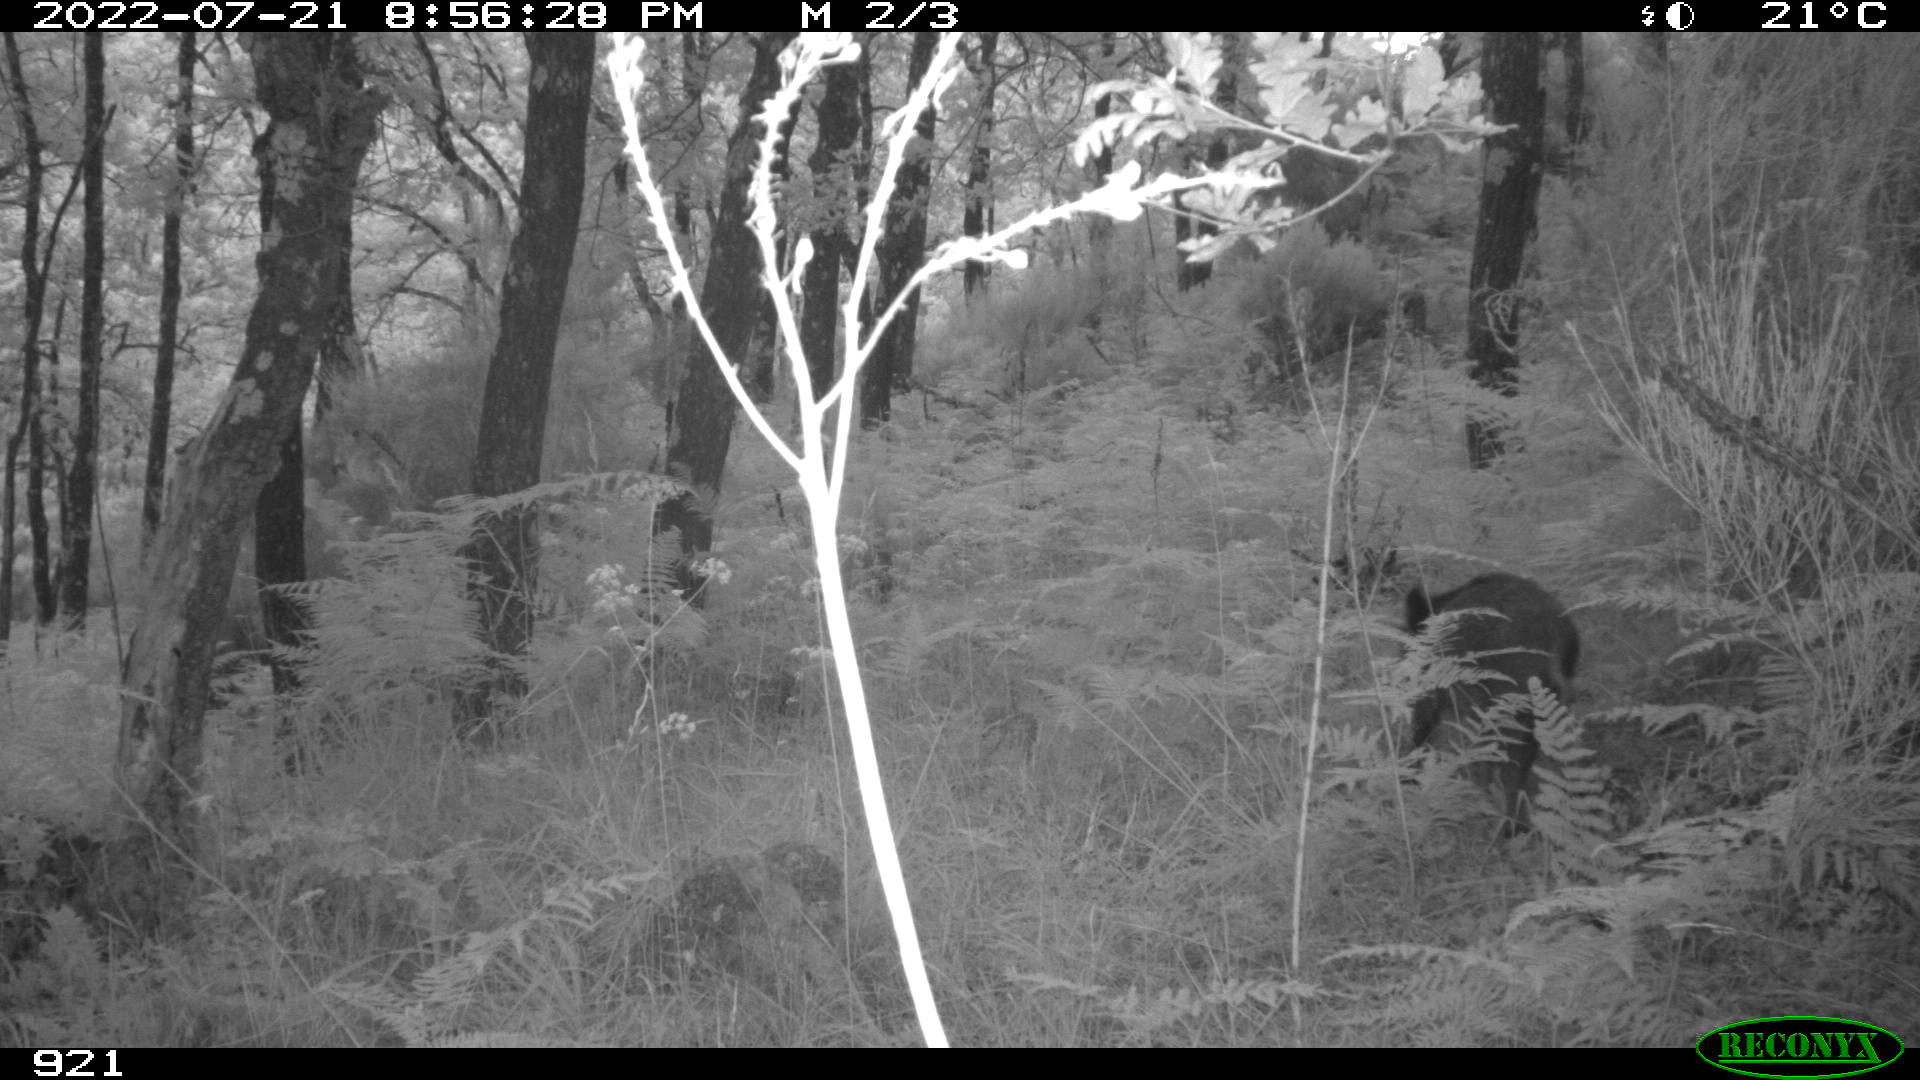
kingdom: Animalia
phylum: Chordata
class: Mammalia
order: Artiodactyla
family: Suidae
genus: Sus
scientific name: Sus scrofa
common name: Wild boar
